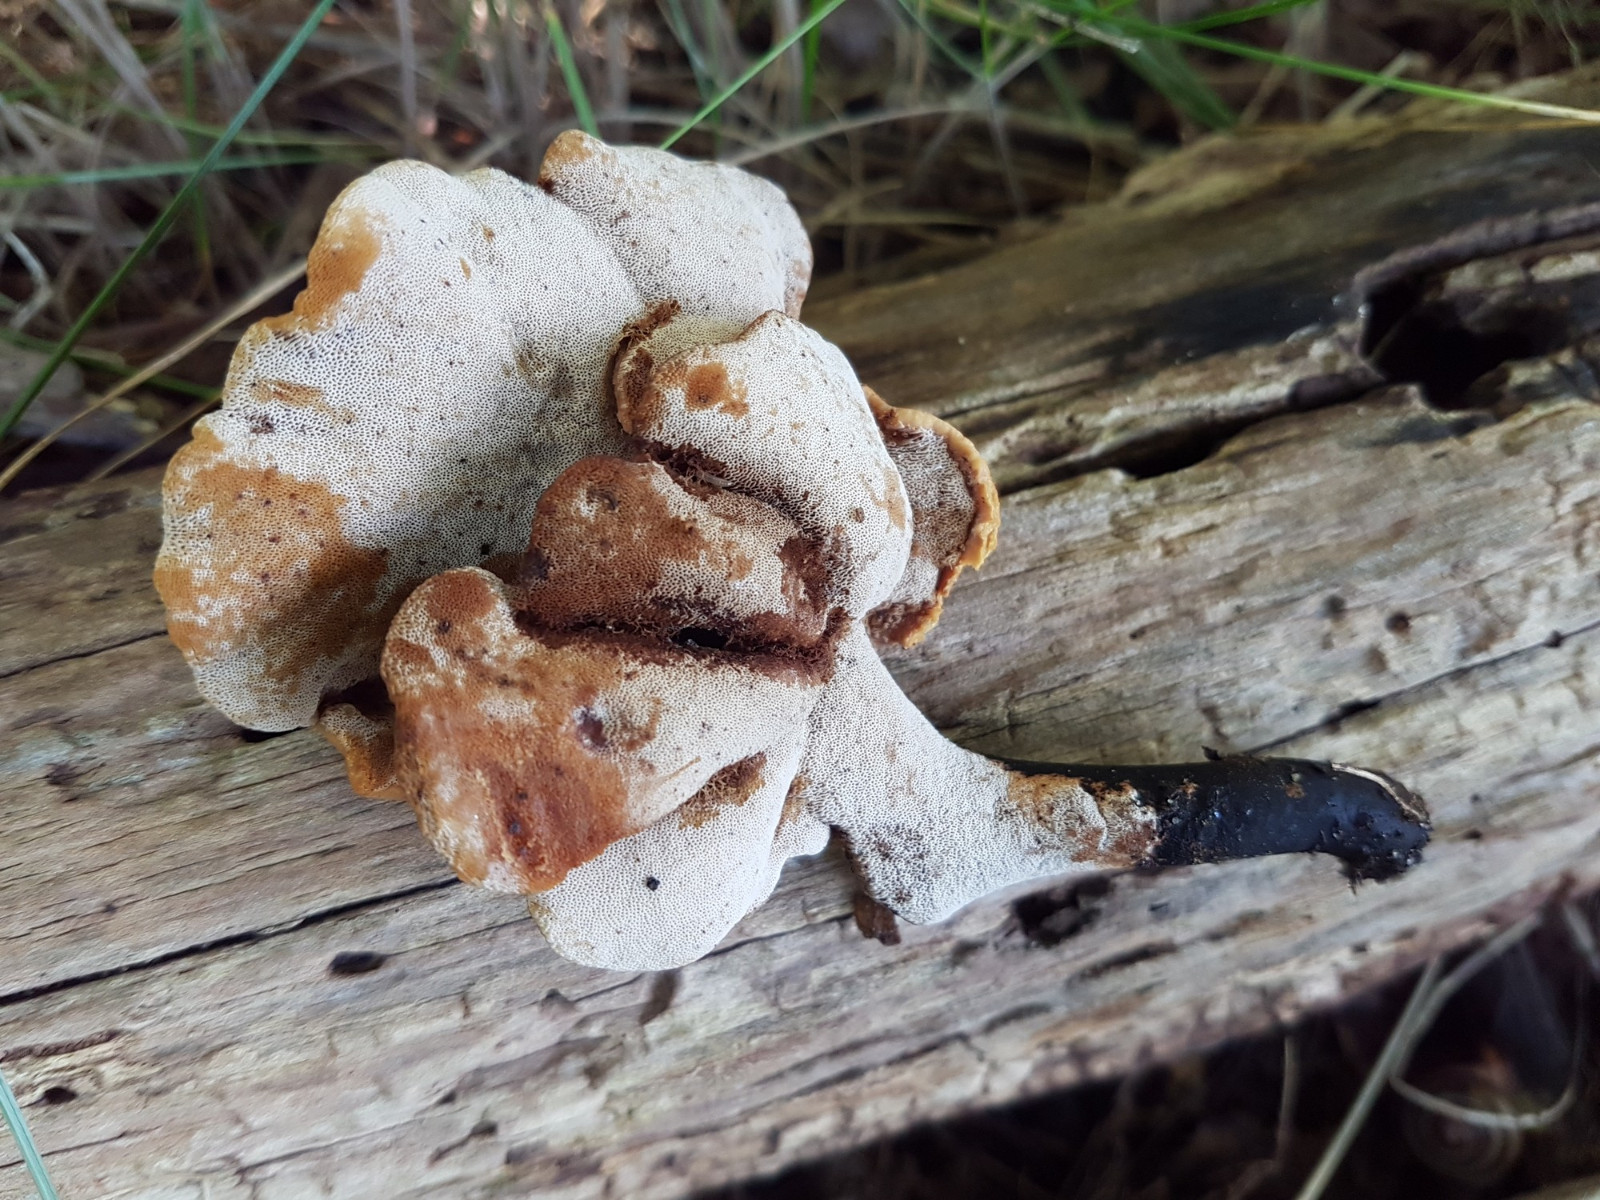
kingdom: Fungi
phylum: Basidiomycota
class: Agaricomycetes
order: Polyporales
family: Polyporaceae
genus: Cerioporus
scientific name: Cerioporus varius
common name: foranderlig stilkporesvamp
